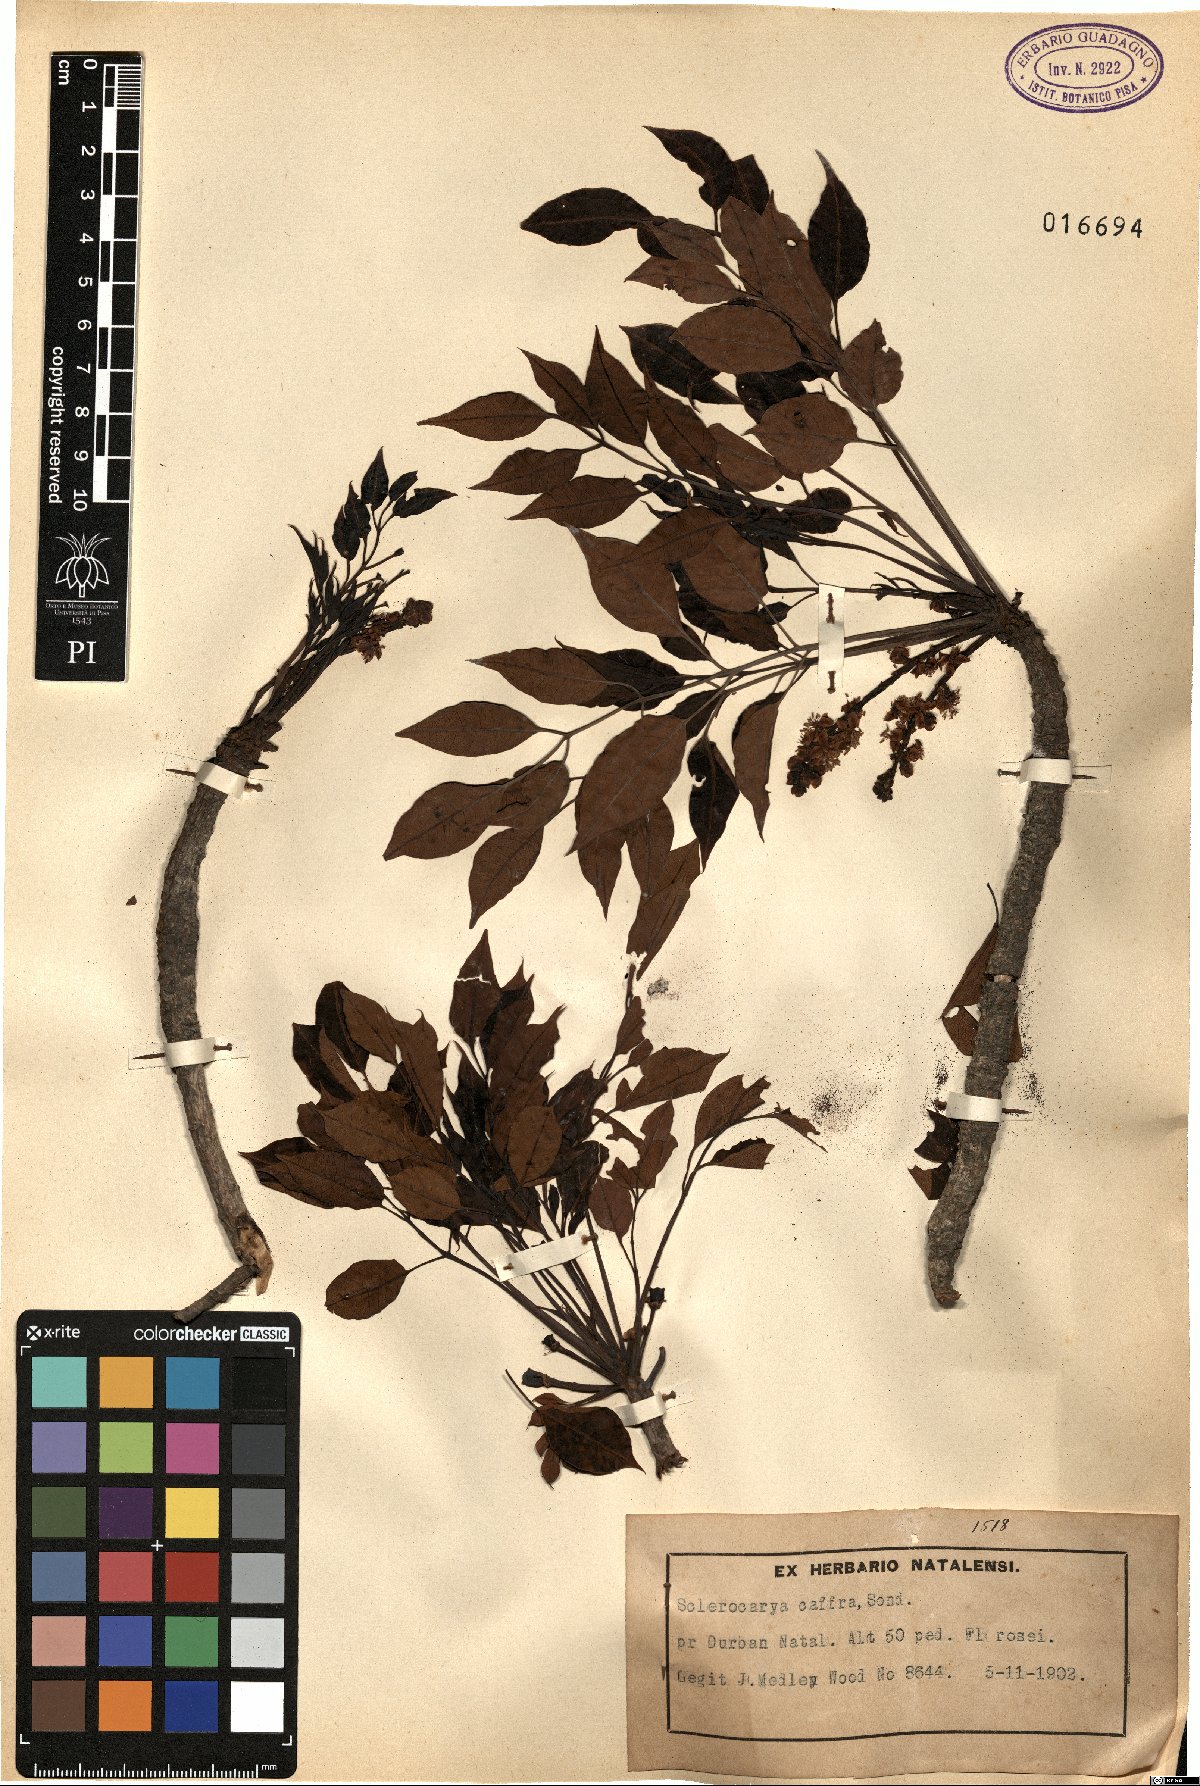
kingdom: Plantae
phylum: Tracheophyta
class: Magnoliopsida
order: Sapindales
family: Anacardiaceae
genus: Sclerocarya
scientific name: Sclerocarya birrea
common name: Marula
